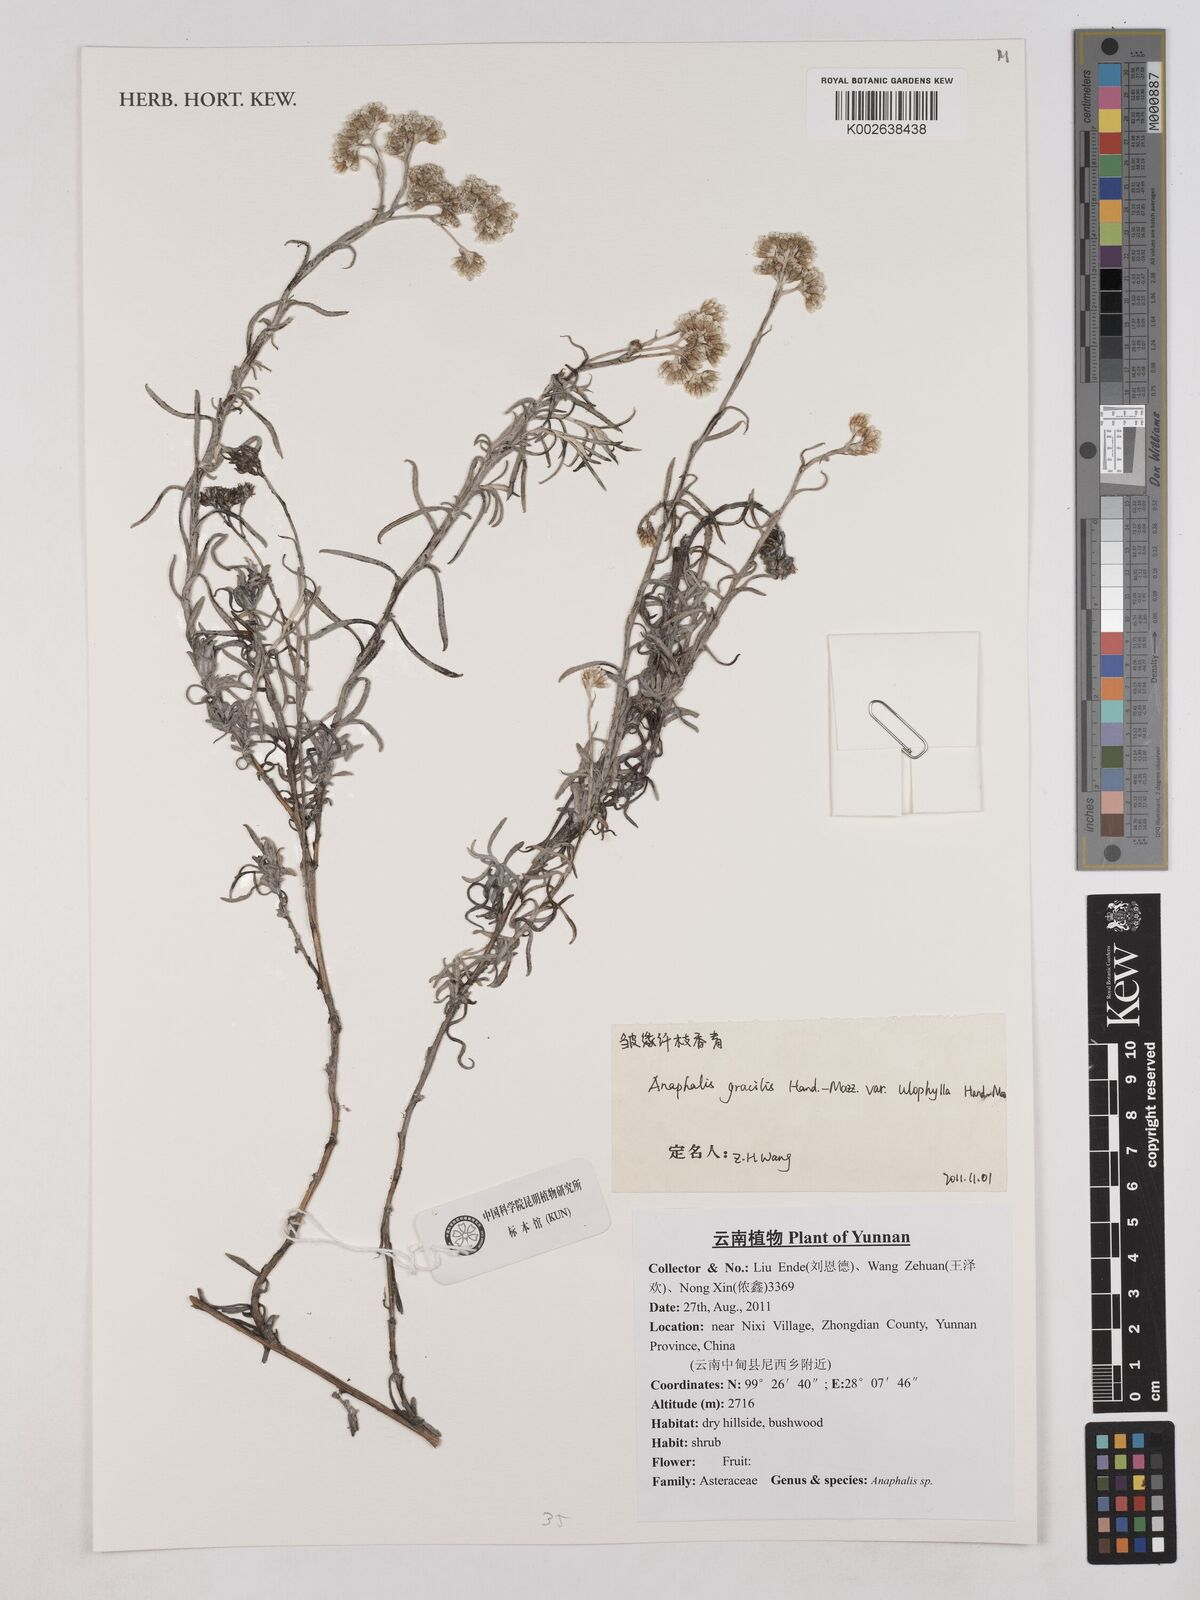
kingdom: Plantae
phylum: Tracheophyta
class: Magnoliopsida
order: Asterales
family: Asteraceae
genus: Anaphalis
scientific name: Anaphalis gracilis
